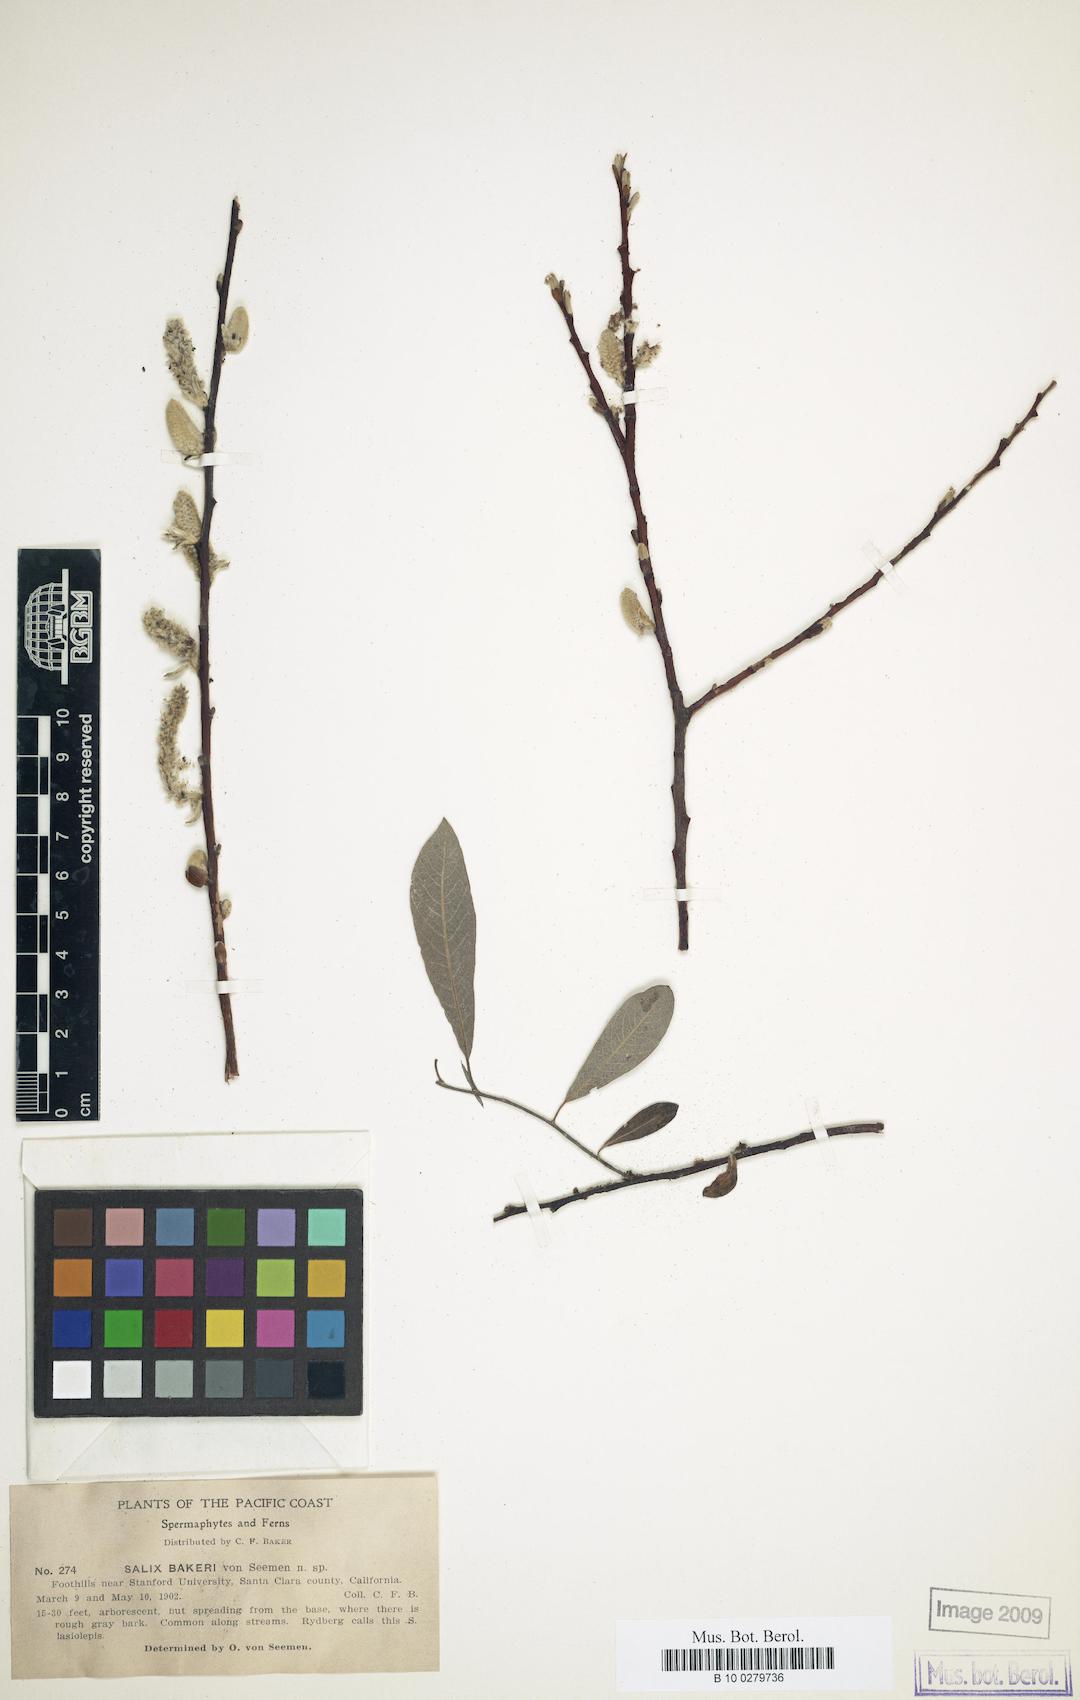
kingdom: Plantae
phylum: Tracheophyta
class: Magnoliopsida
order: Malpighiales
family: Salicaceae
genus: Salix
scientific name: Salix lasiolepis
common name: Arroyo willow
